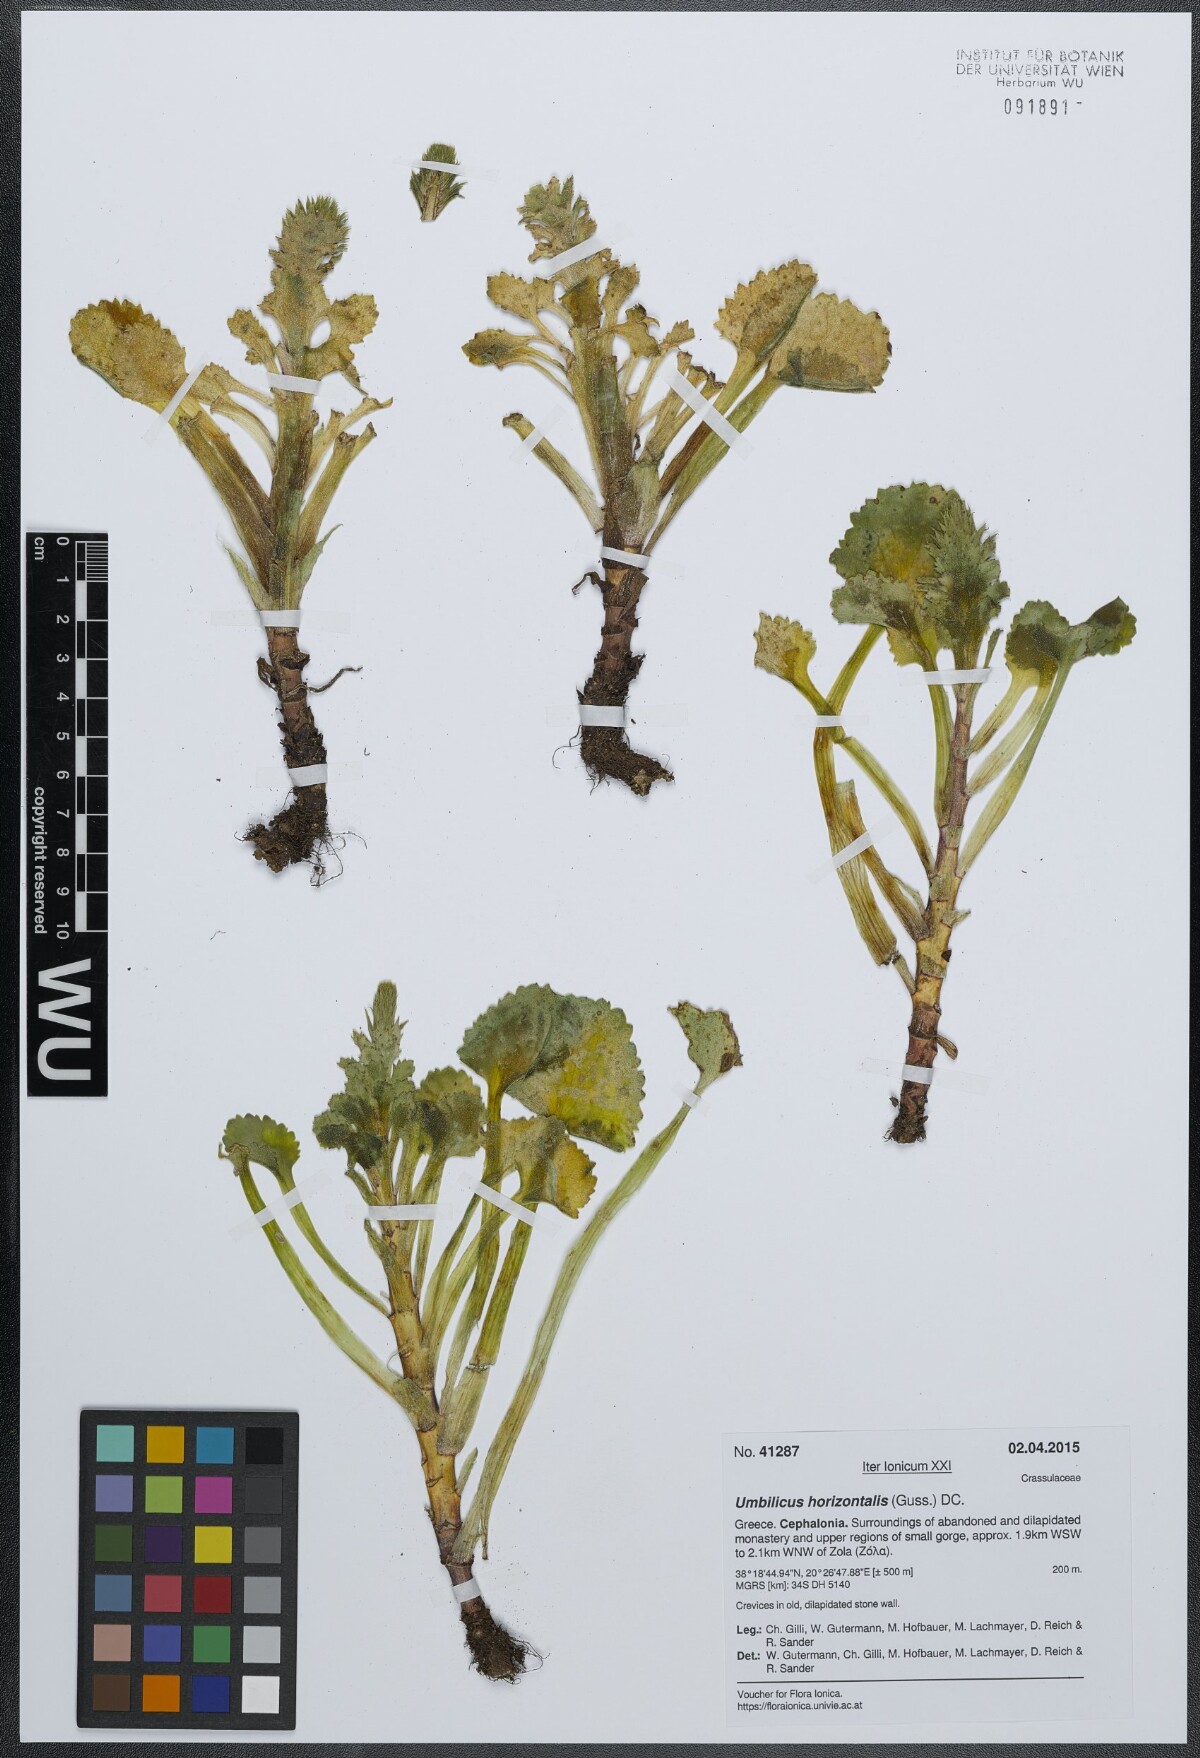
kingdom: Plantae
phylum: Tracheophyta
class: Magnoliopsida
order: Saxifragales
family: Crassulaceae
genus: Umbilicus
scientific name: Umbilicus horizontalis
